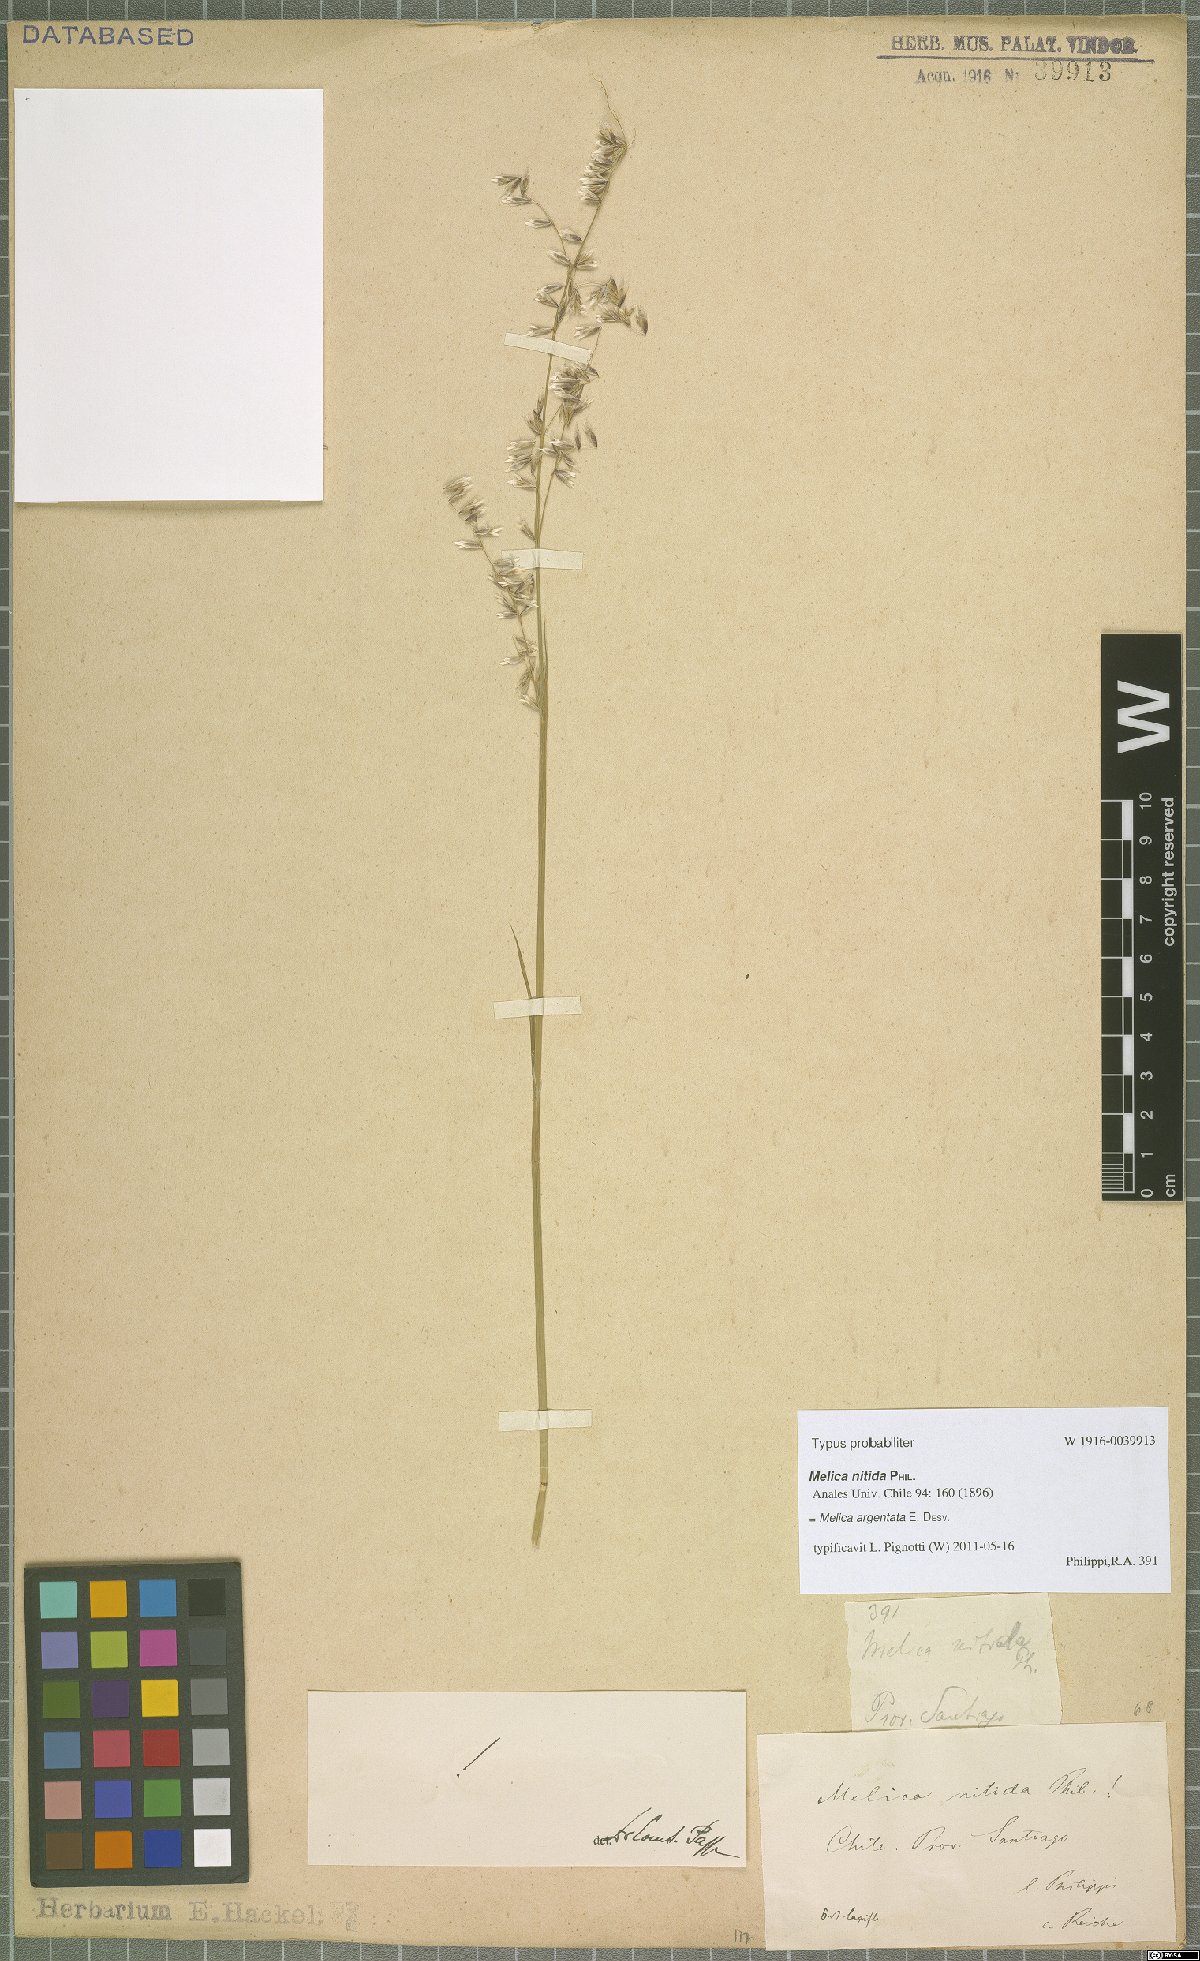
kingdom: Plantae
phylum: Tracheophyta
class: Liliopsida
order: Poales
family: Poaceae
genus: Melica
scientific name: Melica argentata
